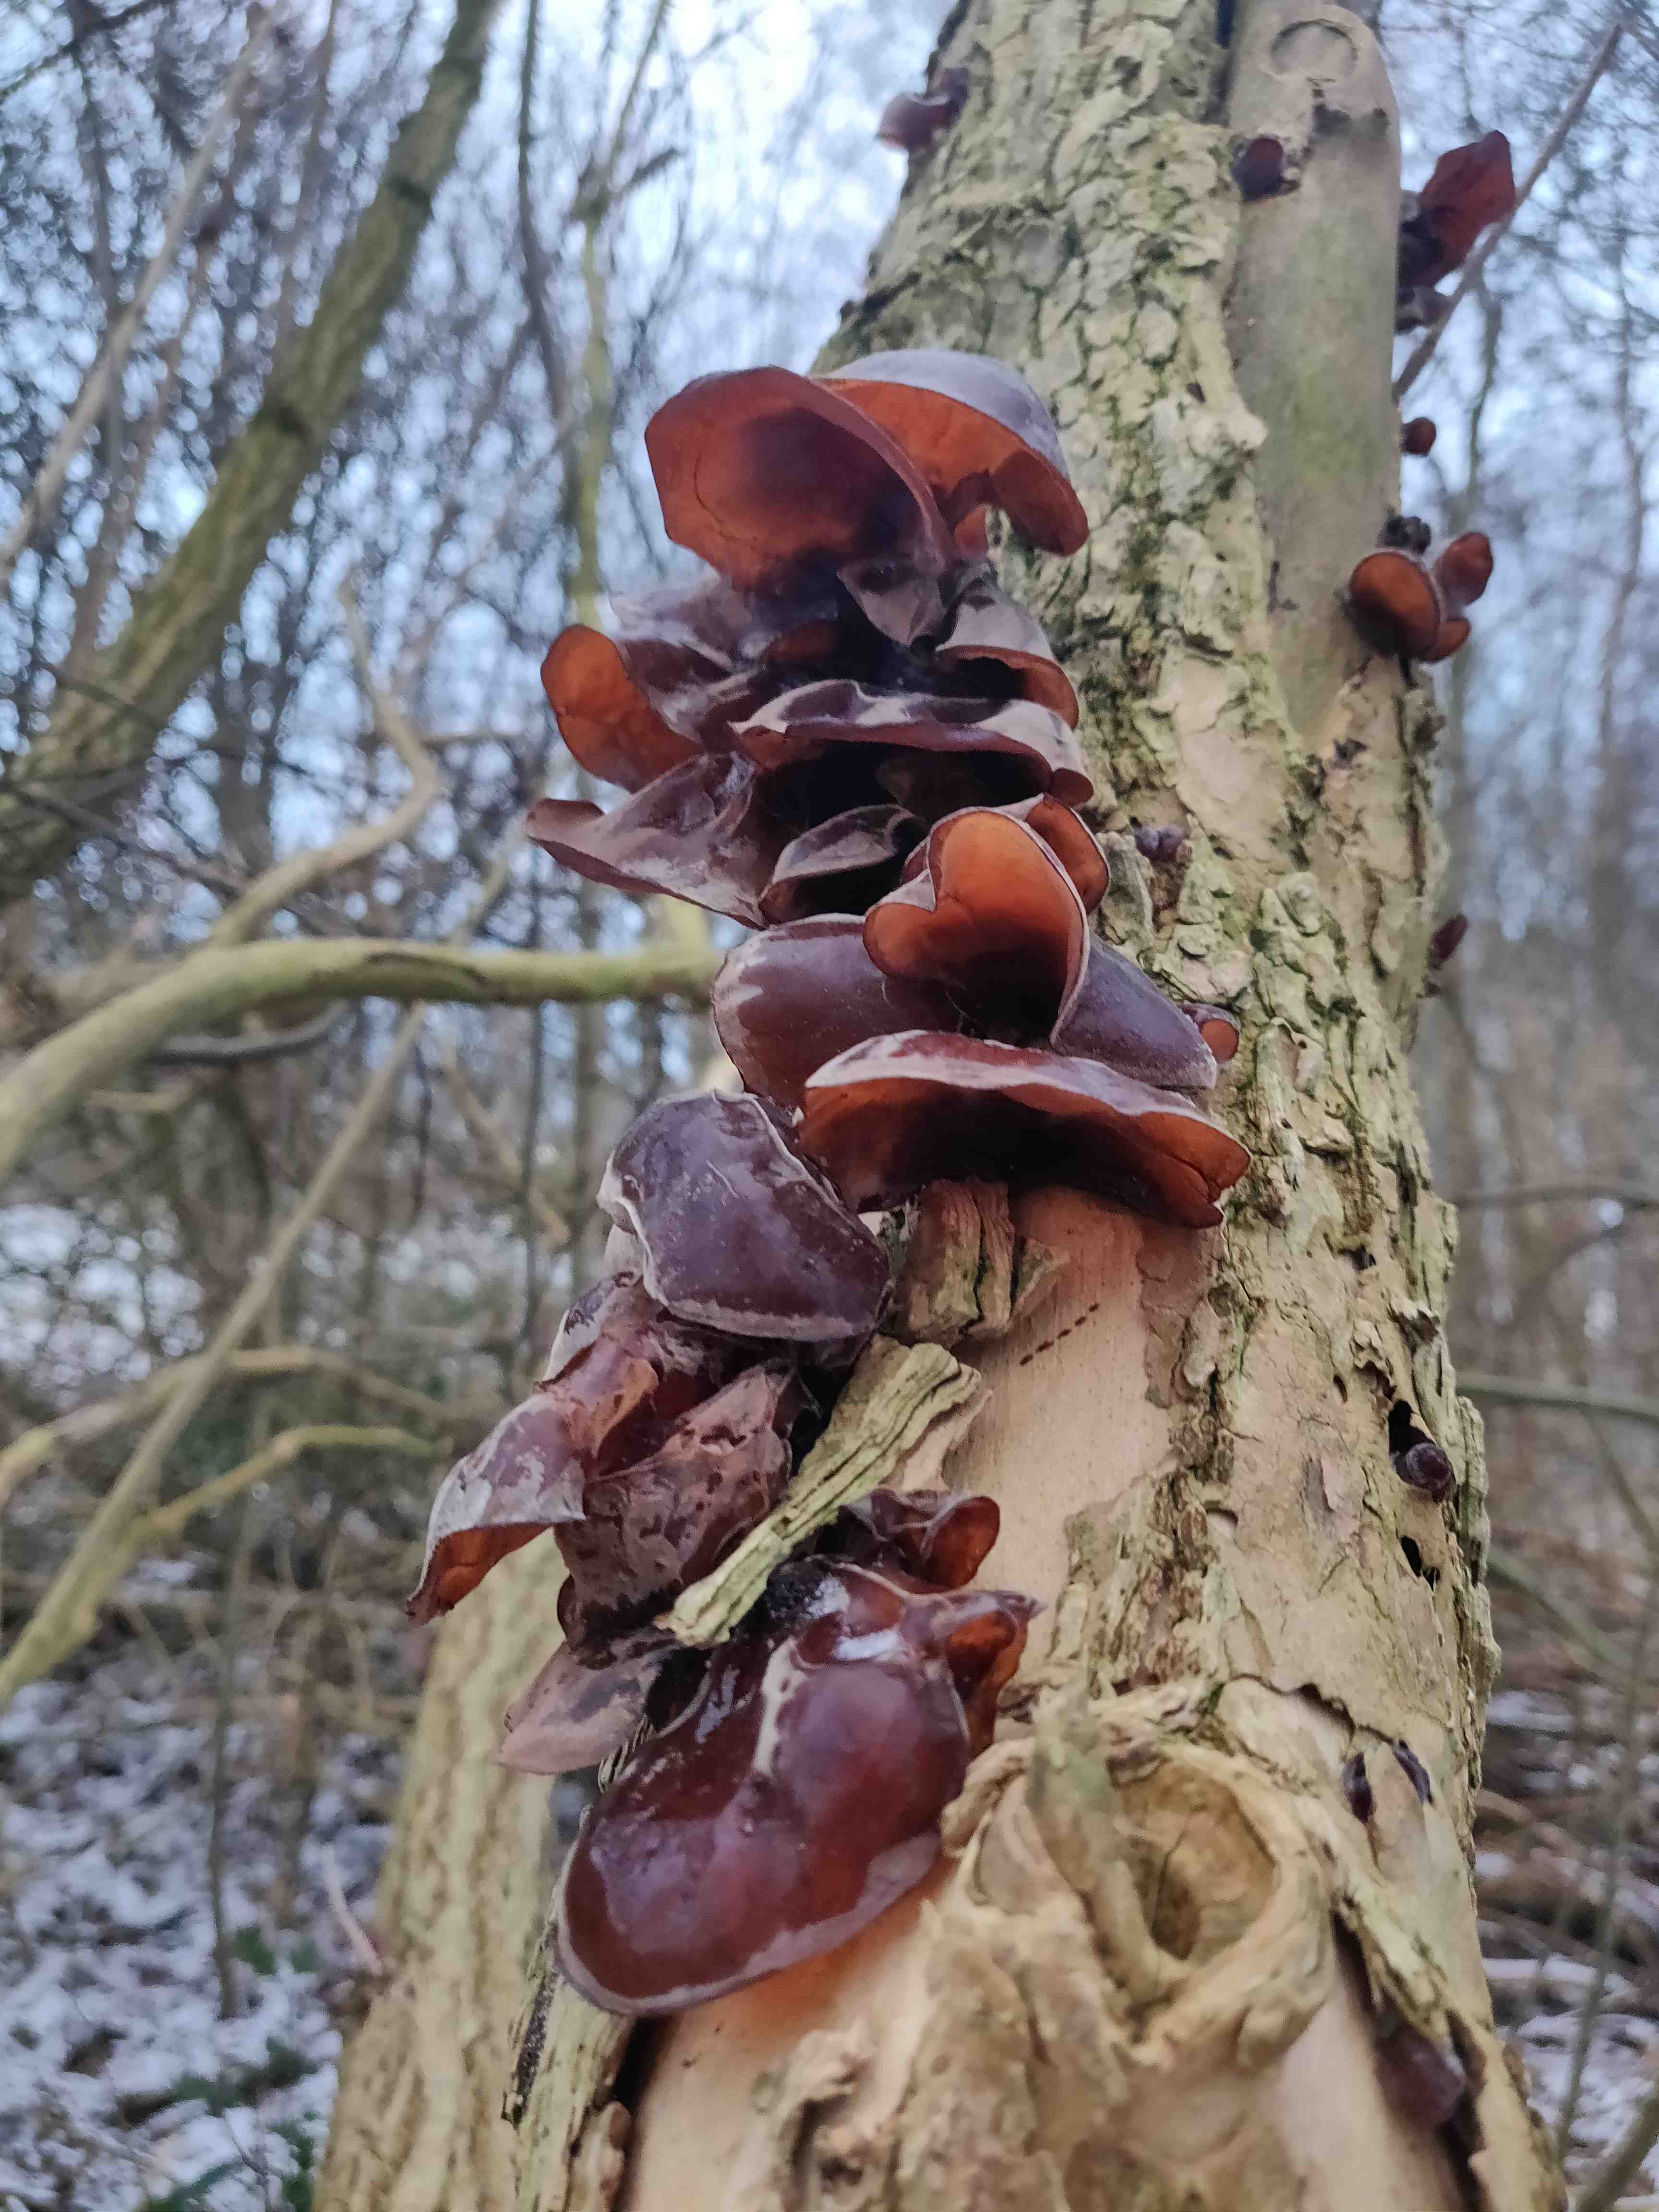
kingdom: Fungi
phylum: Basidiomycota
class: Agaricomycetes
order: Auriculariales
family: Auriculariaceae
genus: Auricularia
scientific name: Auricularia auricula-judae
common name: almindelig judasøre
